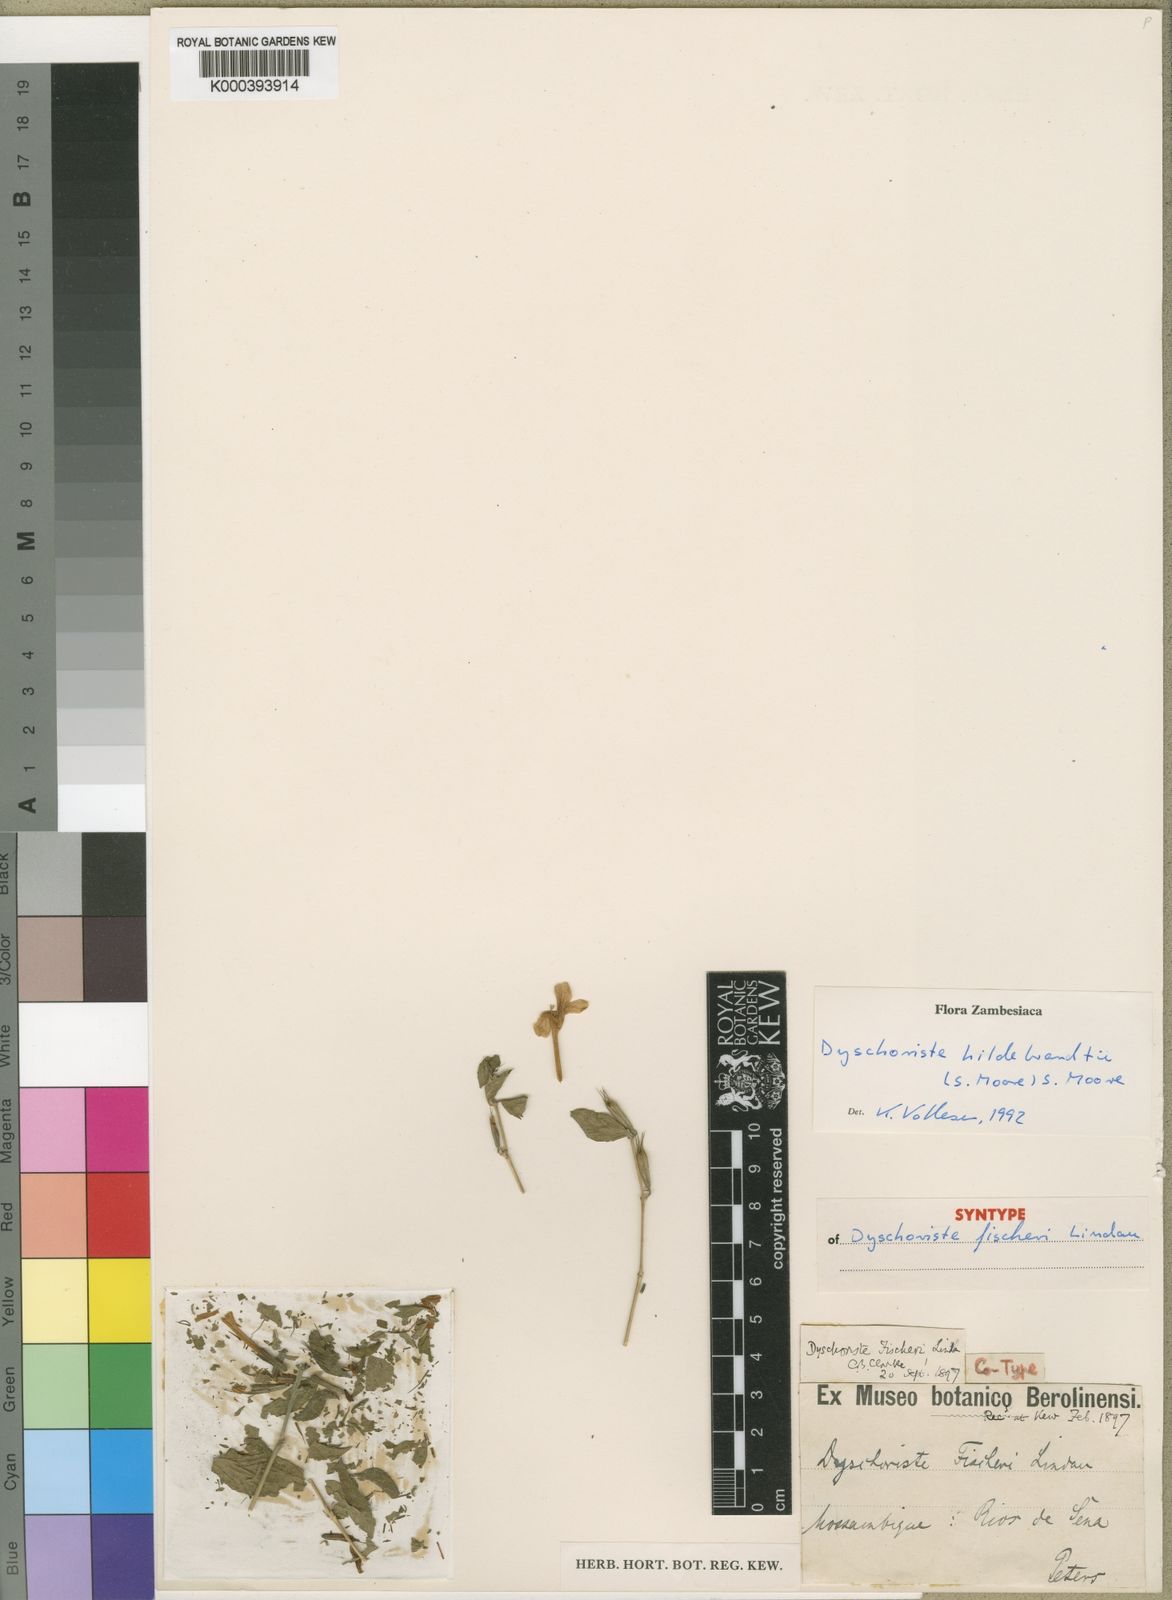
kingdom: Plantae
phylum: Tracheophyta
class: Magnoliopsida
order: Lamiales
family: Acanthaceae
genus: Dyschoriste
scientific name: Dyschoriste
